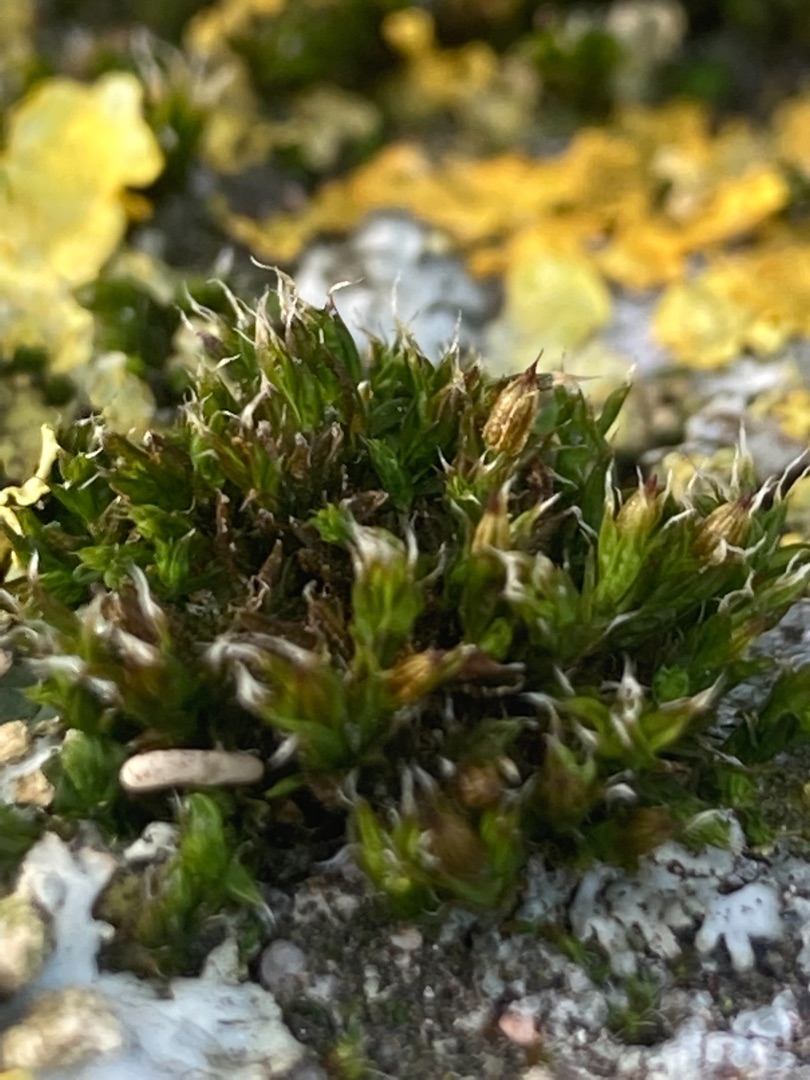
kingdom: Plantae
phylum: Bryophyta
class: Bryopsida
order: Orthotrichales
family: Orthotrichaceae
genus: Orthotrichum
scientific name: Orthotrichum diaphanum
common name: Hårspidset furehætte
